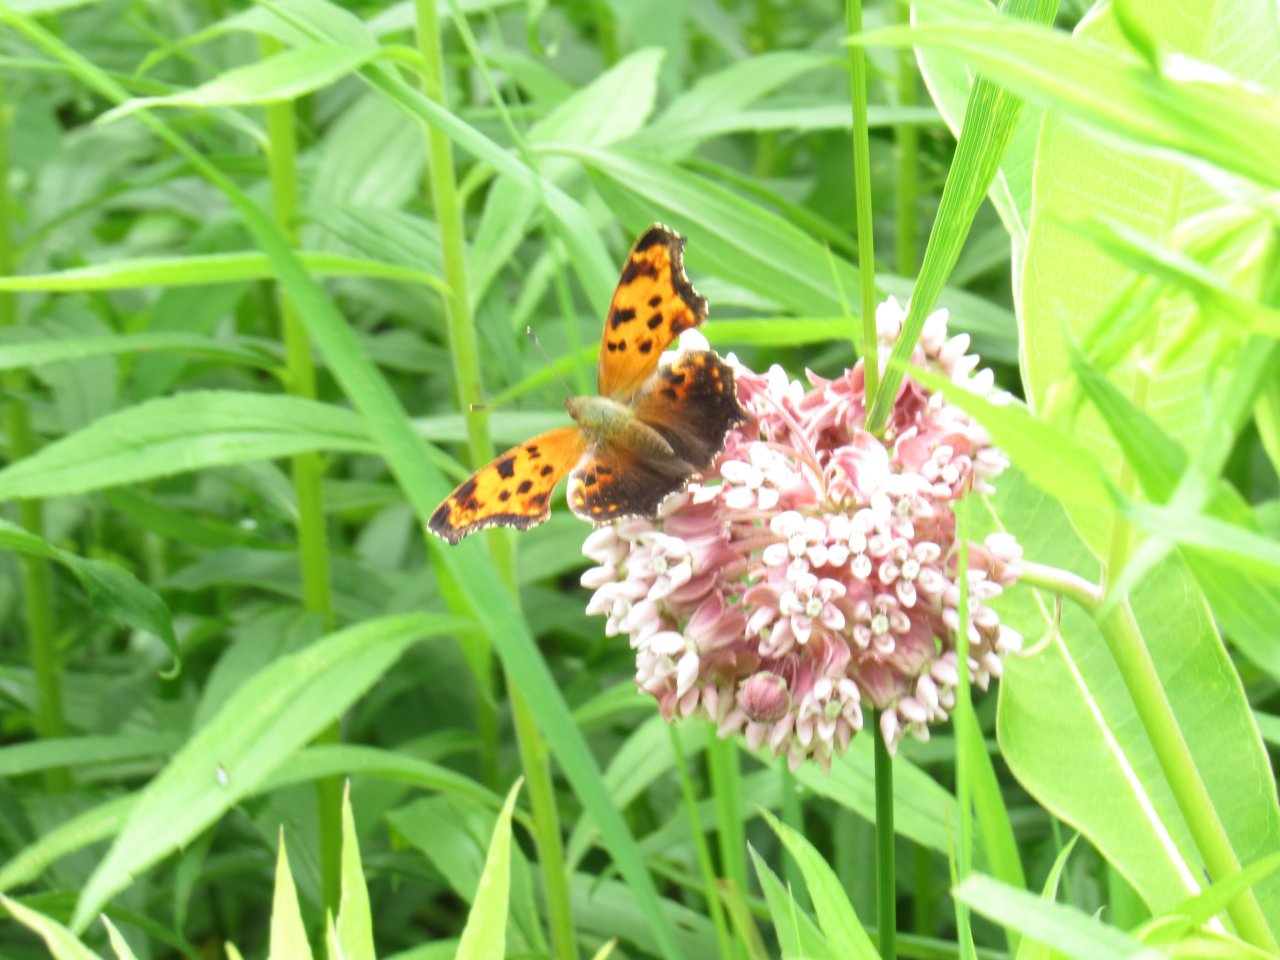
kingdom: Animalia
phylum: Arthropoda
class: Insecta
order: Lepidoptera
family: Nymphalidae
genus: Polygonia
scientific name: Polygonia comma
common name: Eastern Comma
